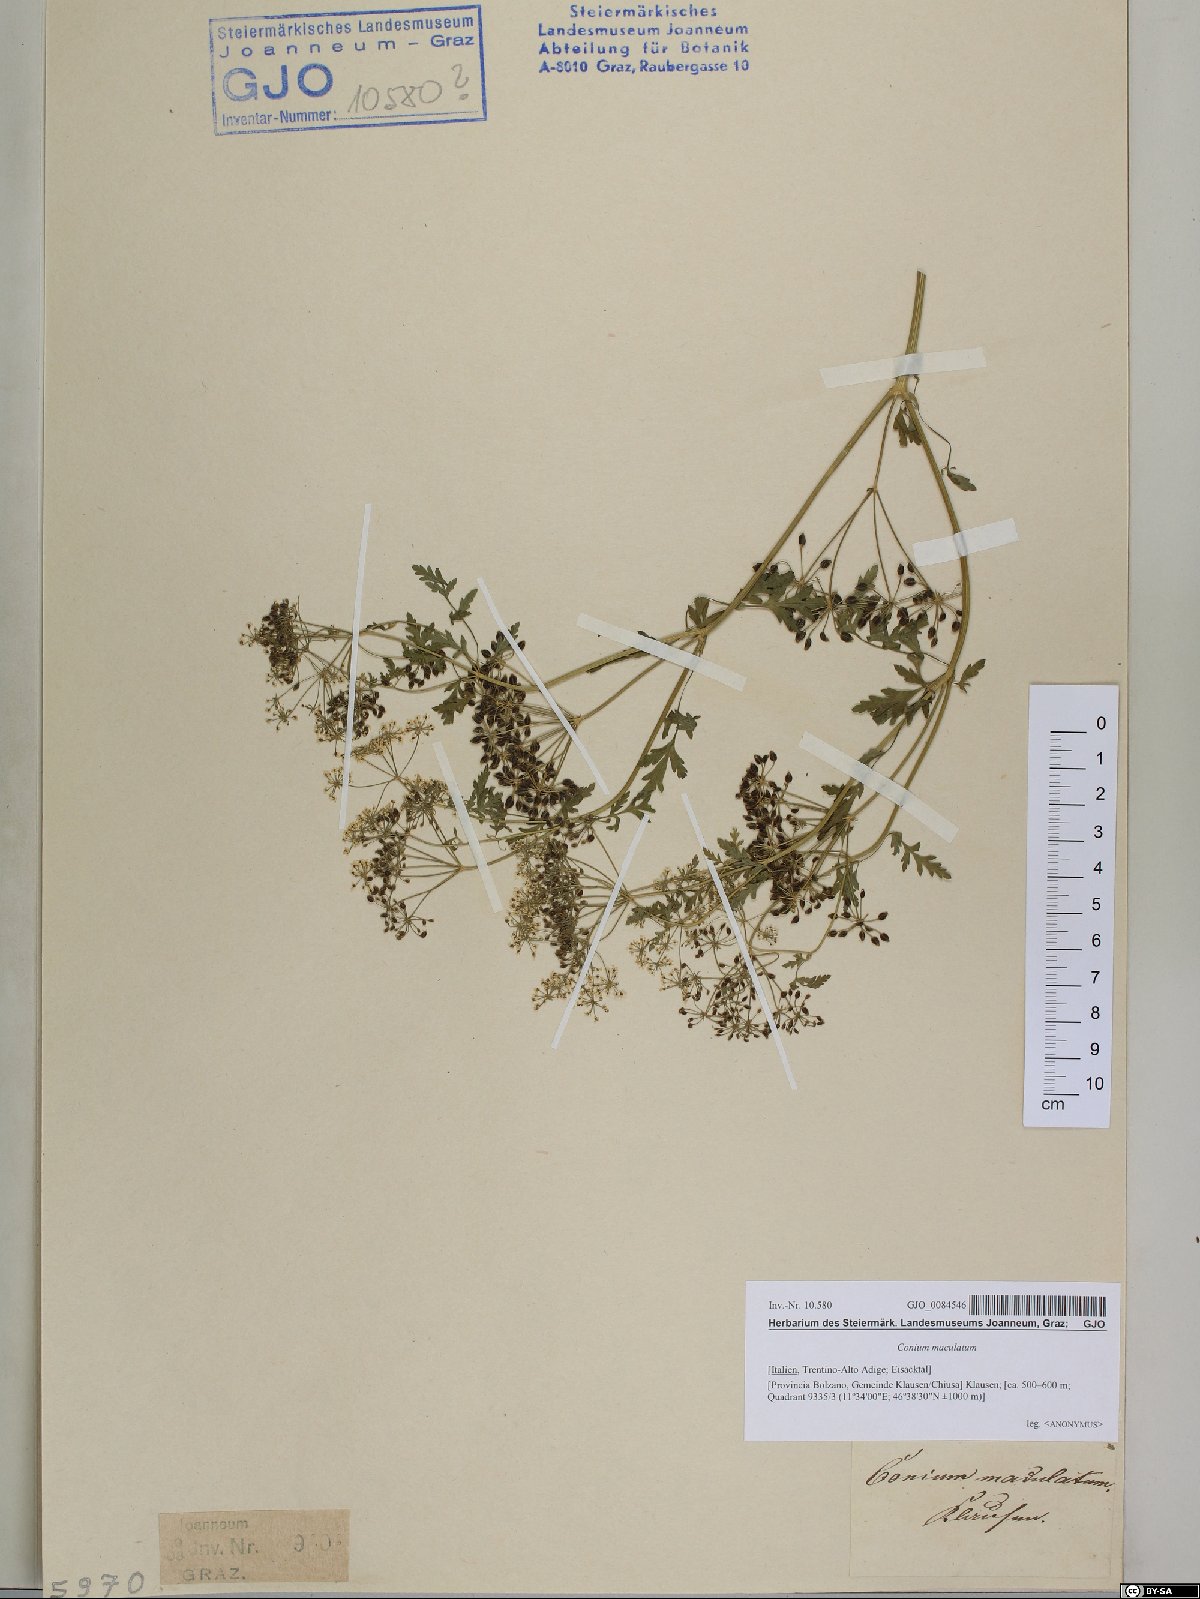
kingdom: Plantae
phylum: Tracheophyta
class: Magnoliopsida
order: Apiales
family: Apiaceae
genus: Conium
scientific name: Conium maculatum
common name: Hemlock
